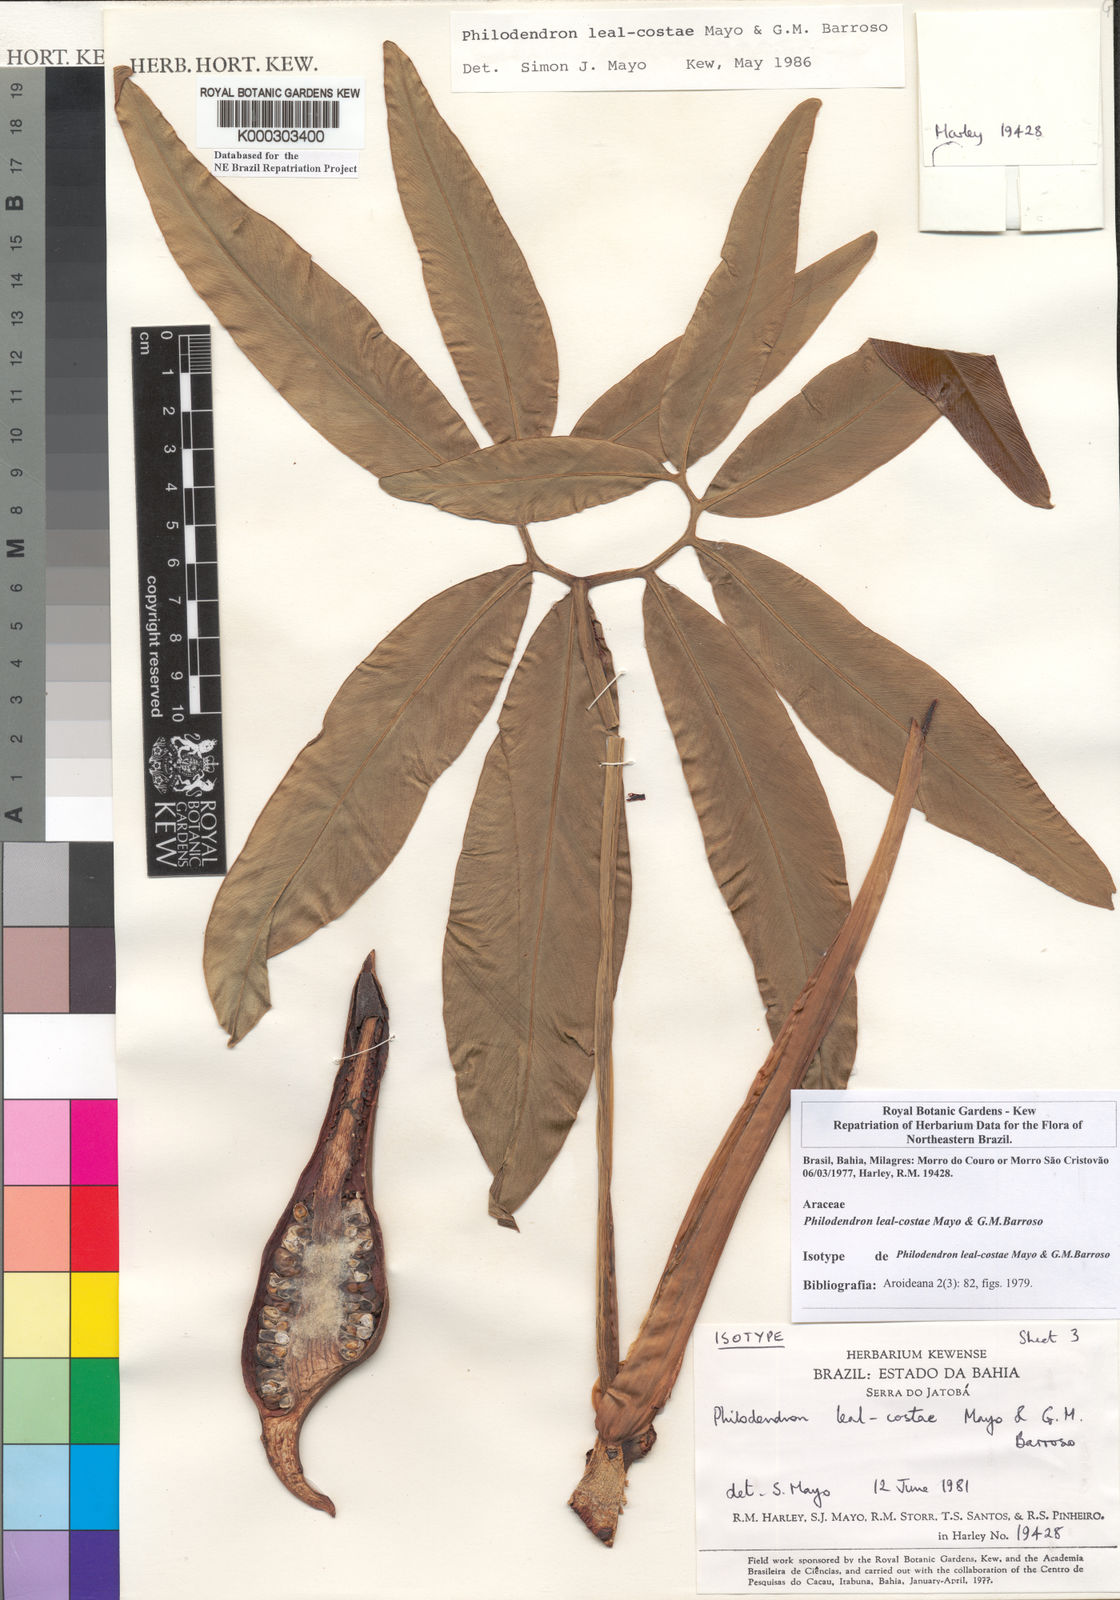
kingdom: Plantae
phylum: Tracheophyta
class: Liliopsida
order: Alismatales
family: Araceae
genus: Thaumatophyllum
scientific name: Thaumatophyllum leal-costae
